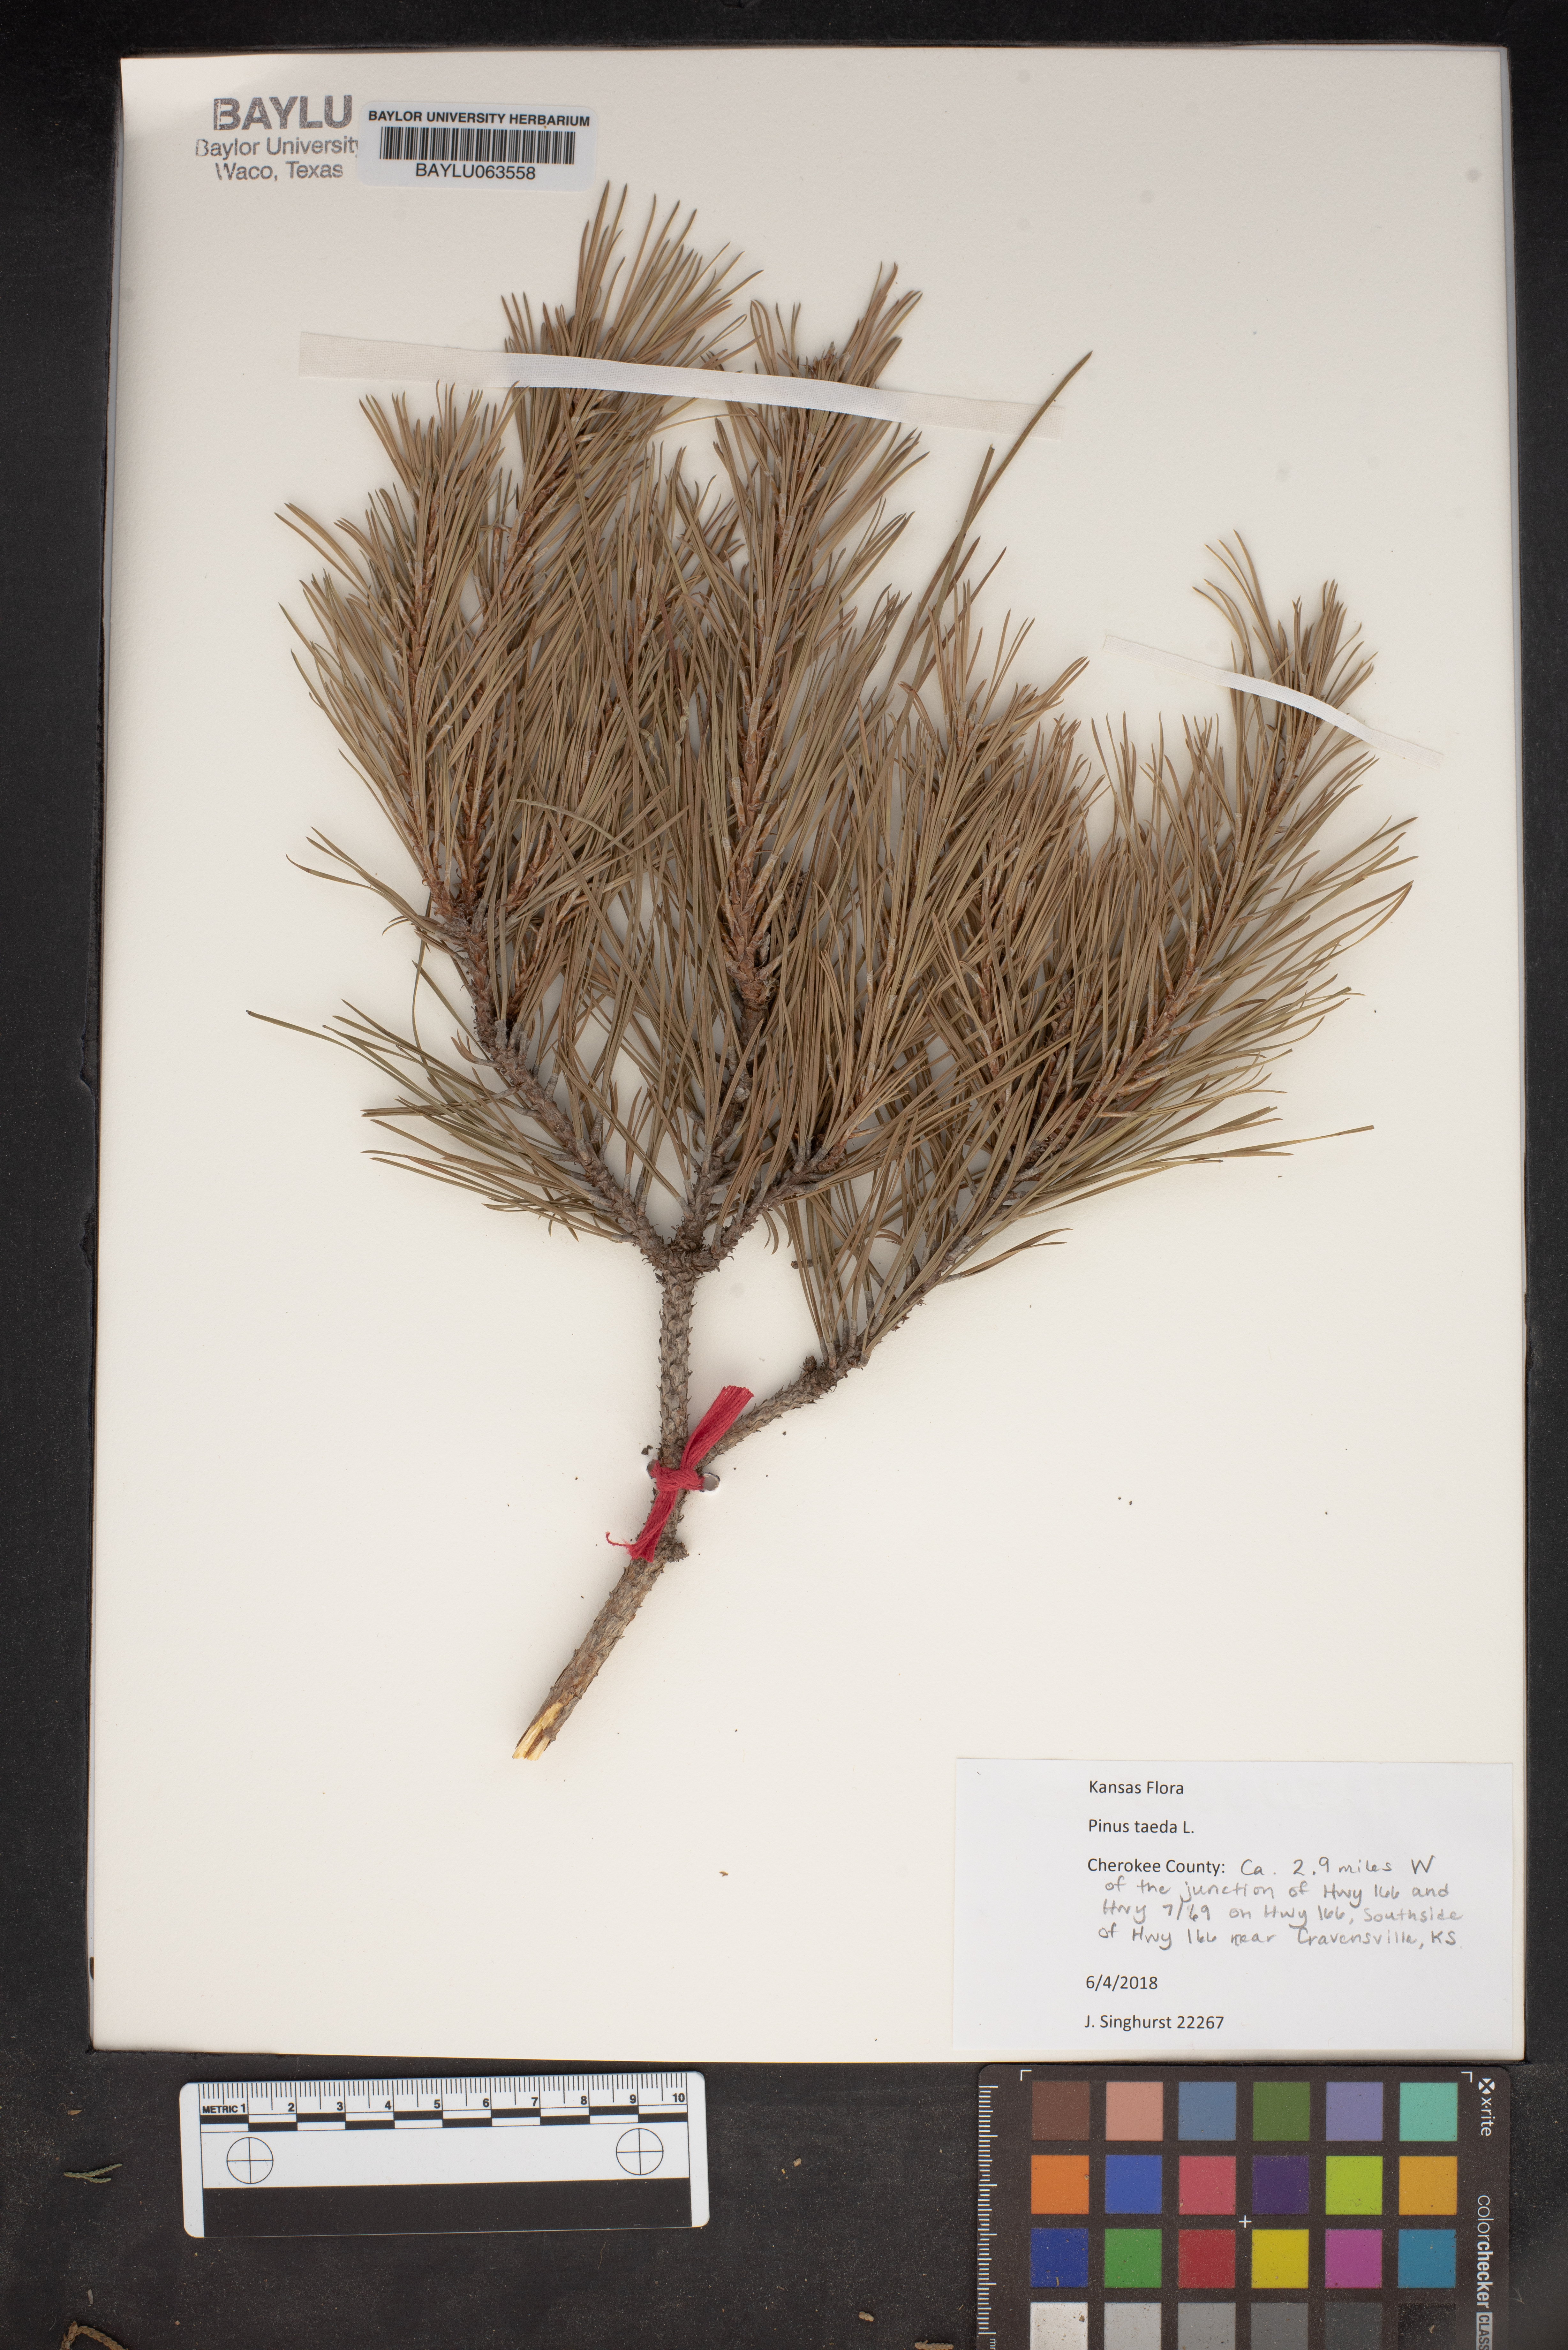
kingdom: Plantae
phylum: Tracheophyta
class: Pinopsida
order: Pinales
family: Pinaceae
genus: Pinus
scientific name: Pinus taeda
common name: Loblolly pine
